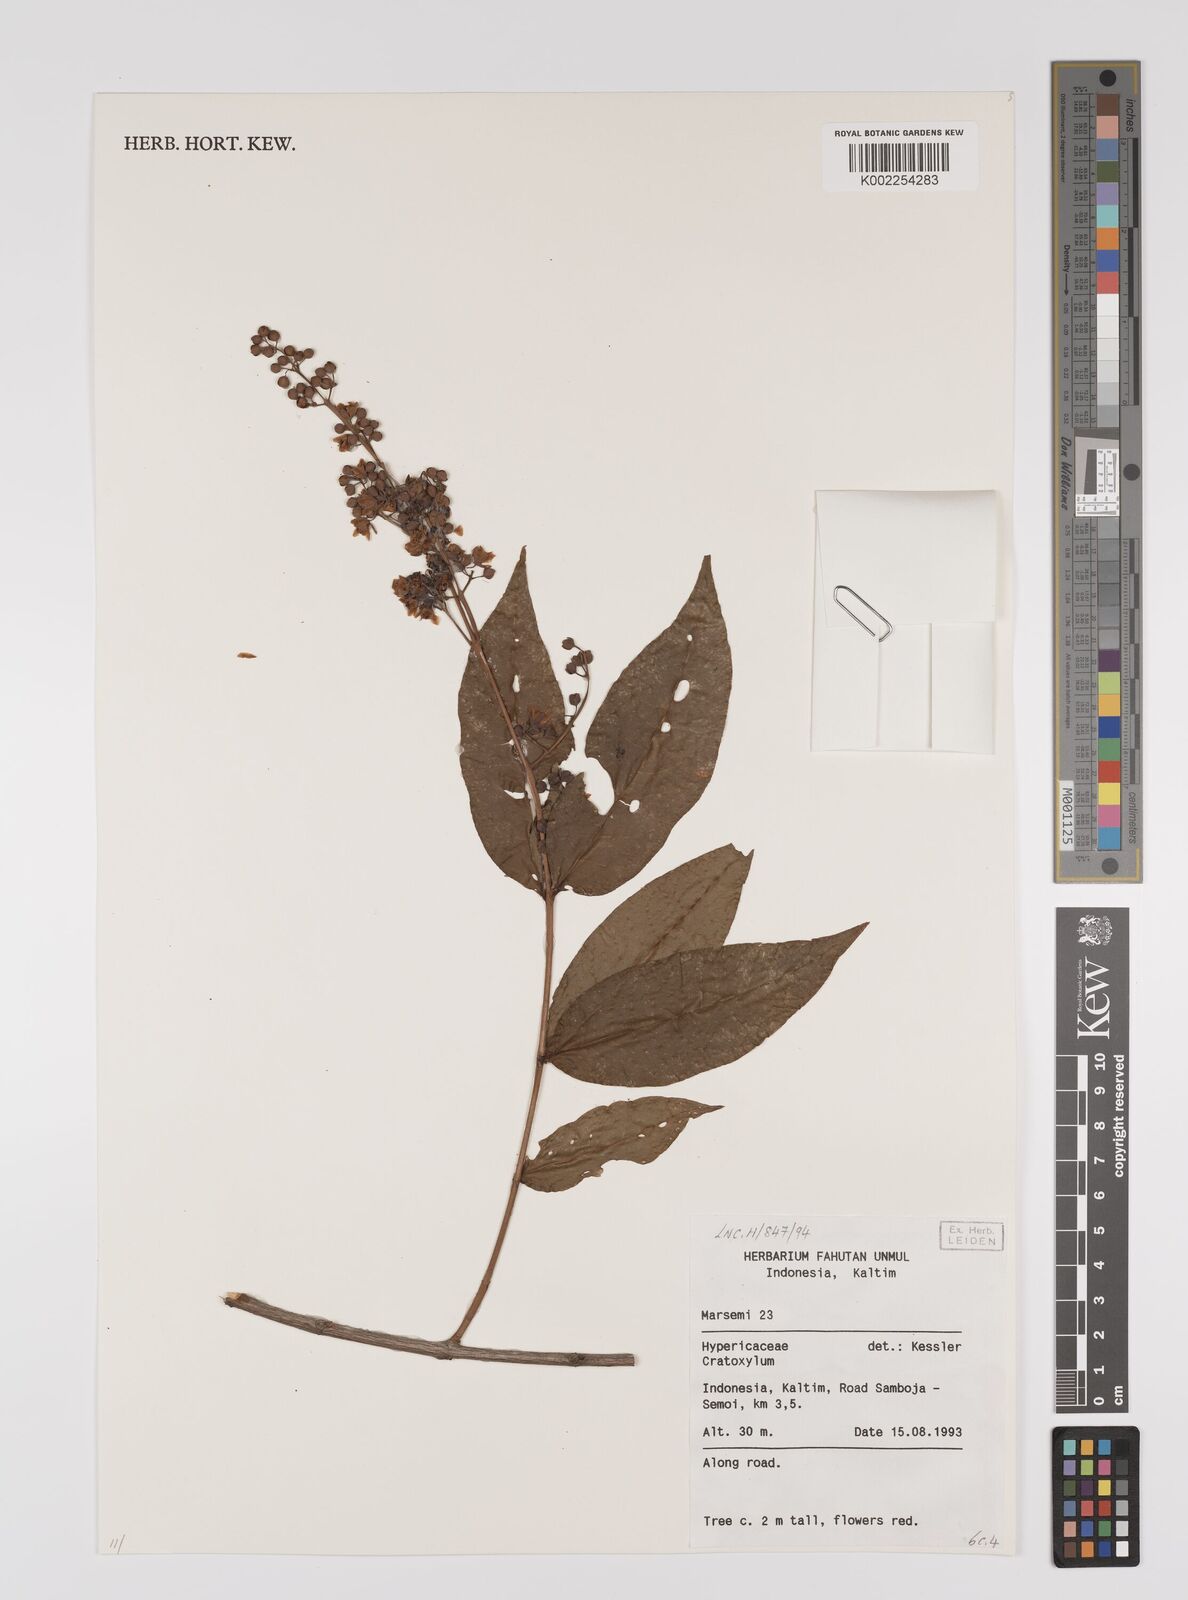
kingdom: Plantae
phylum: Tracheophyta
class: Magnoliopsida
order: Malpighiales
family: Hypericaceae
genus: Cratoxylum
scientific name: Cratoxylum
